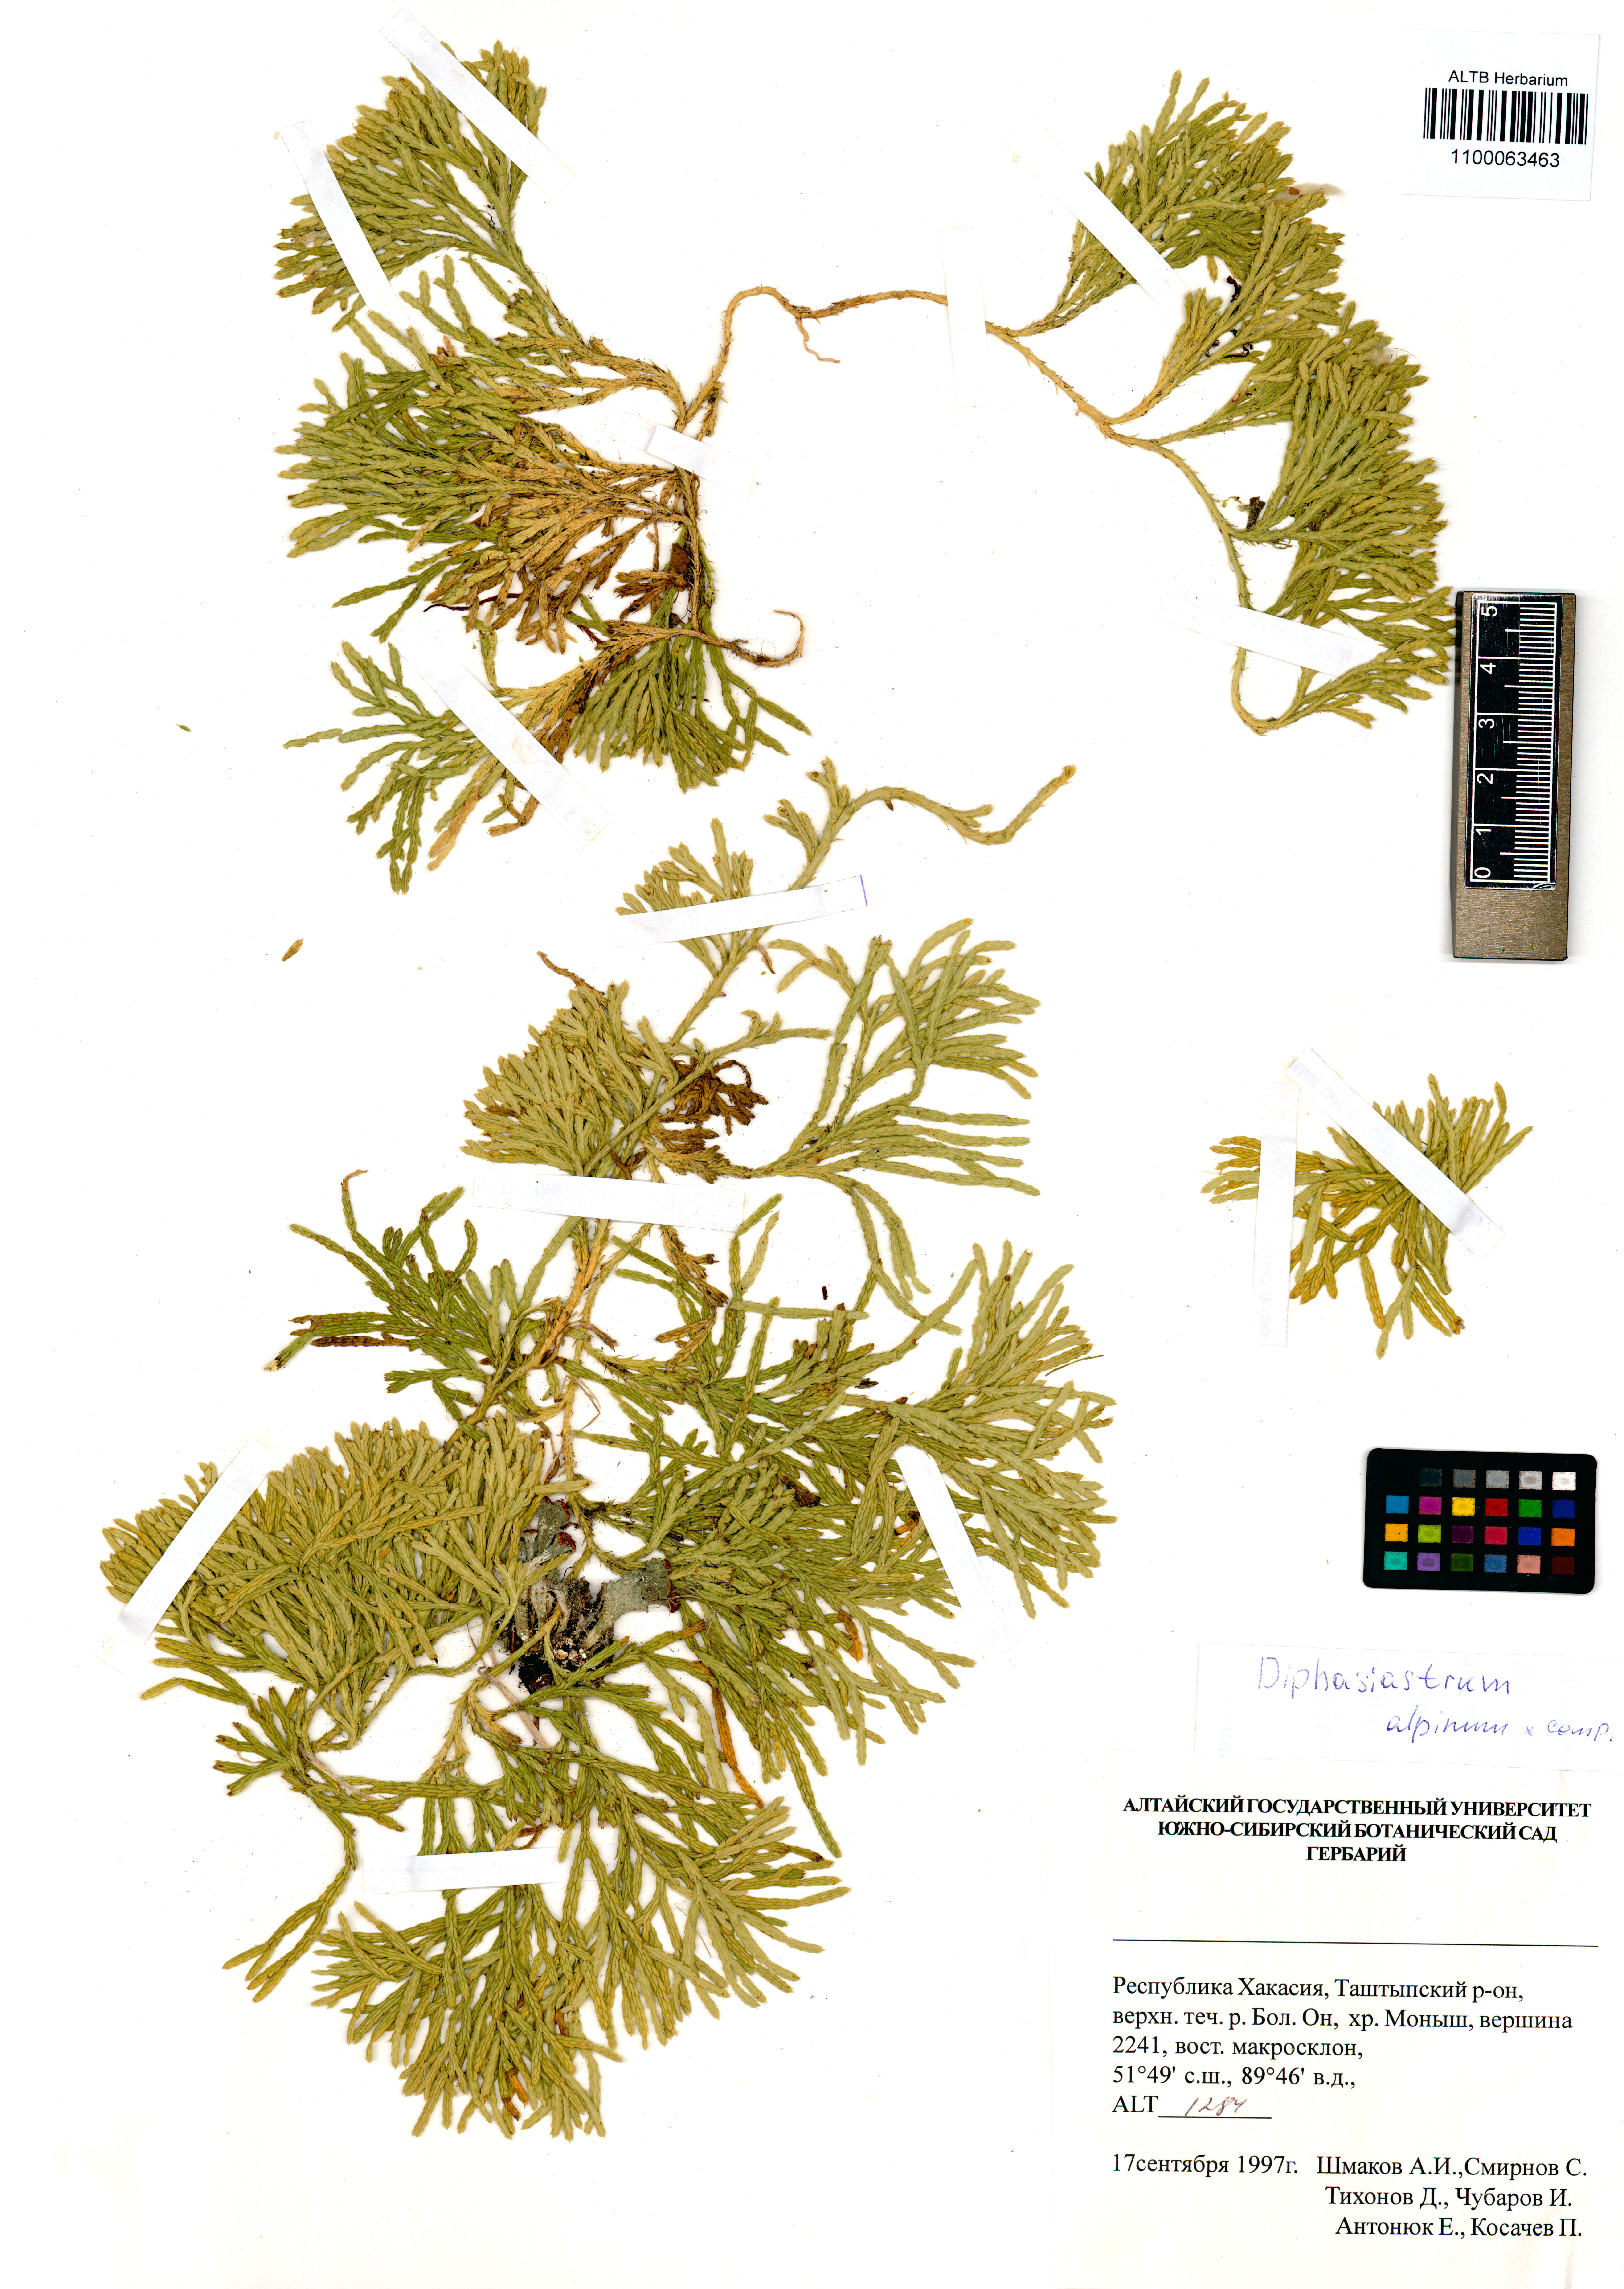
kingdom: Plantae
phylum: Tracheophyta
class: Lycopodiopsida
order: Lycopodiales
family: Lycopodiaceae
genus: Diphasiastrum
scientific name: Diphasiastrum alpinum
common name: Alpine clubmoss
